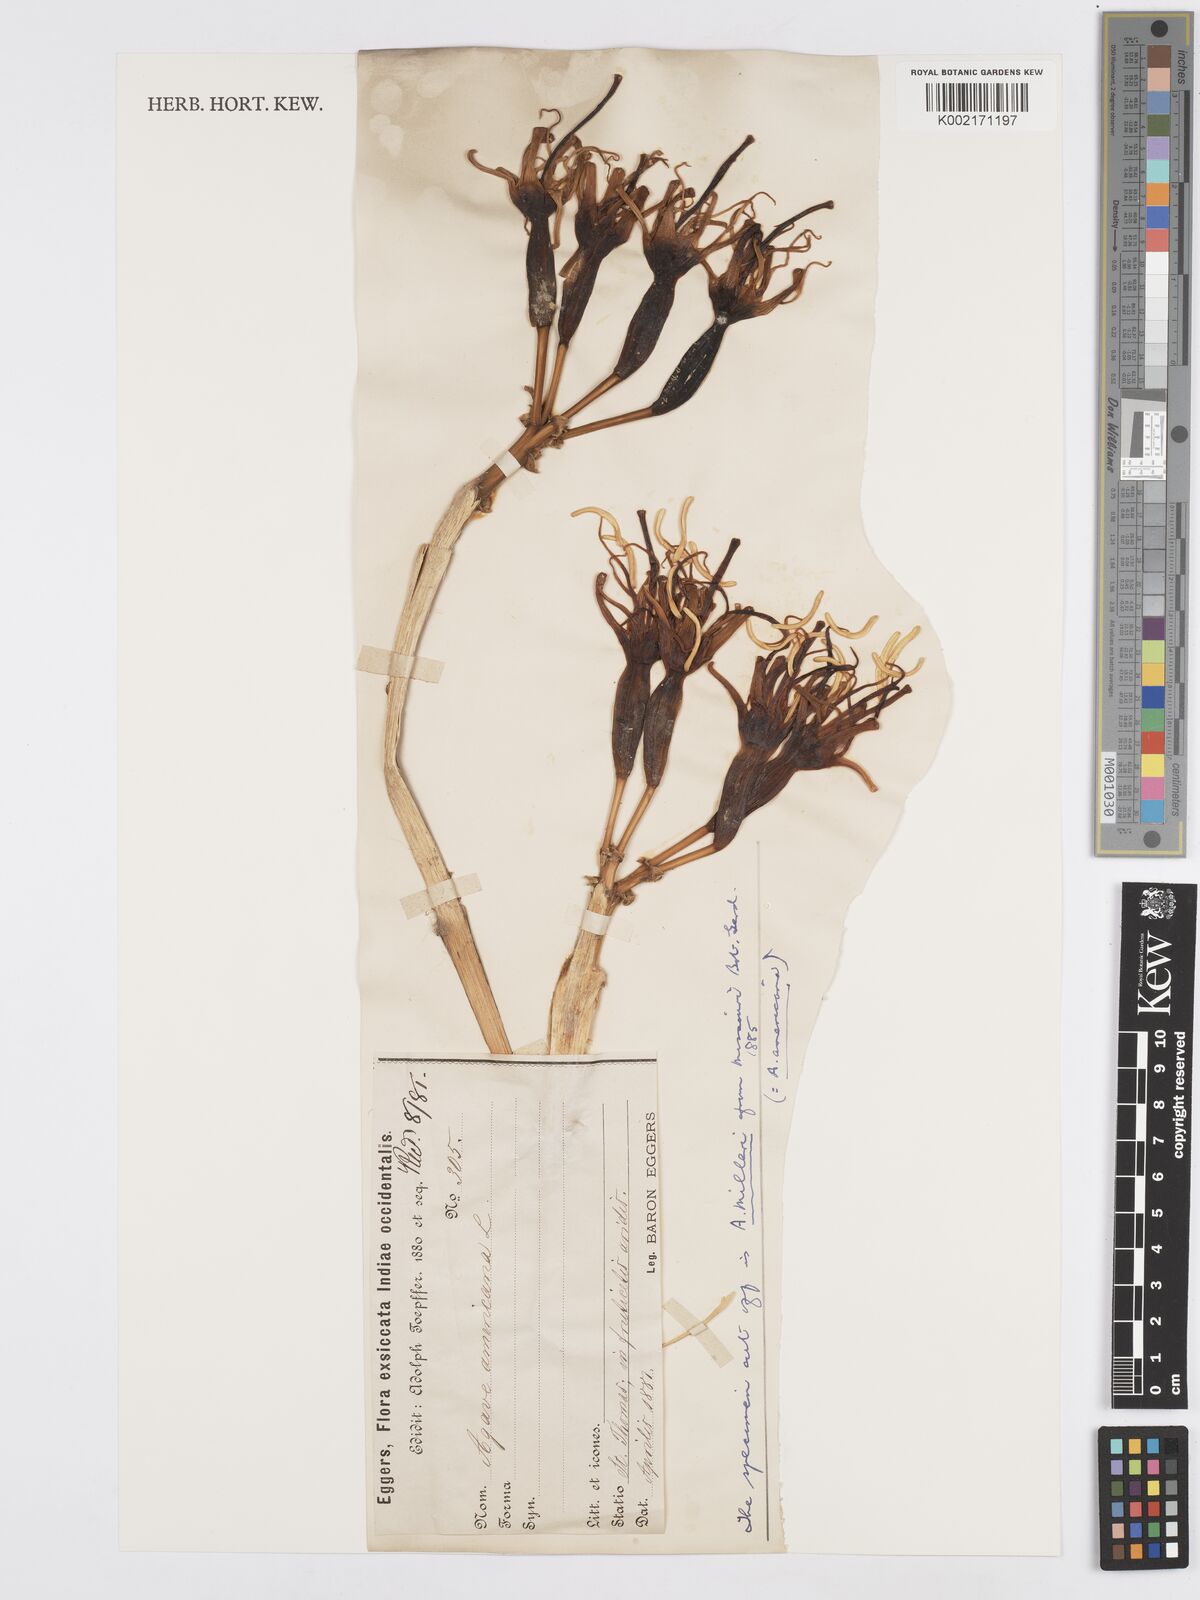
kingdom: Plantae
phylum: Tracheophyta
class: Liliopsida
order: Asparagales
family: Asparagaceae
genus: Agave
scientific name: Agave americana
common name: Centuryplant
